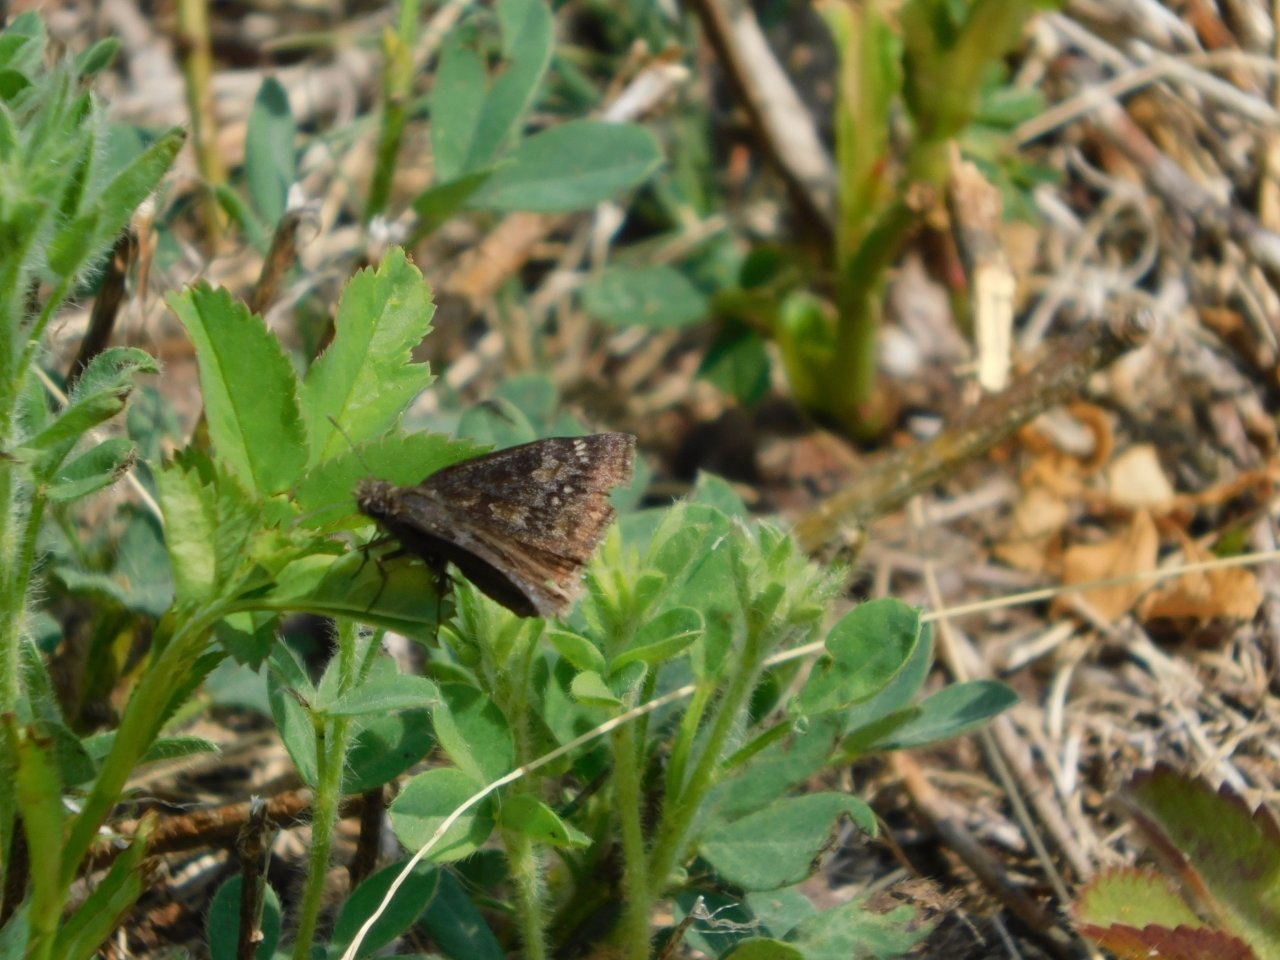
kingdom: Animalia
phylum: Arthropoda
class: Insecta
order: Lepidoptera
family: Hesperiidae
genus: Gesta
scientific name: Gesta
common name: Juvenal's Duskywing
